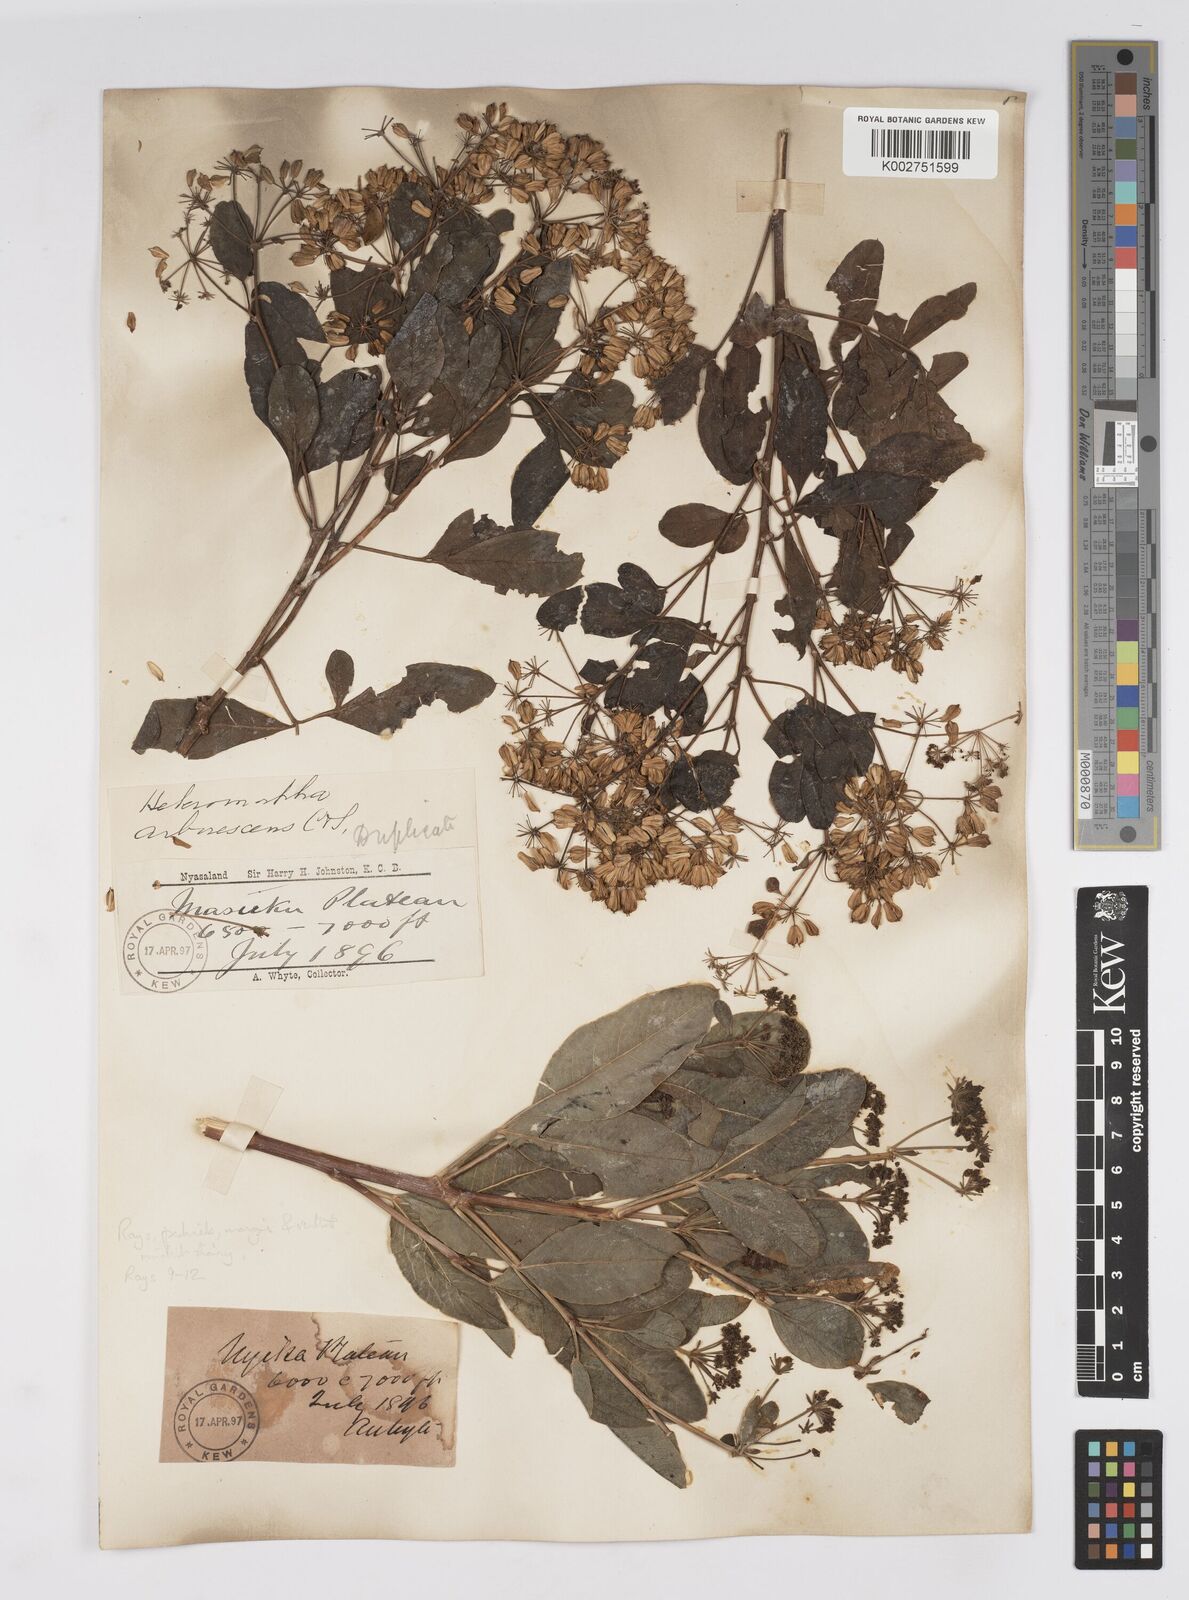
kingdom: Plantae
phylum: Tracheophyta
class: Magnoliopsida
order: Apiales
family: Apiaceae
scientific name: Apiaceae
